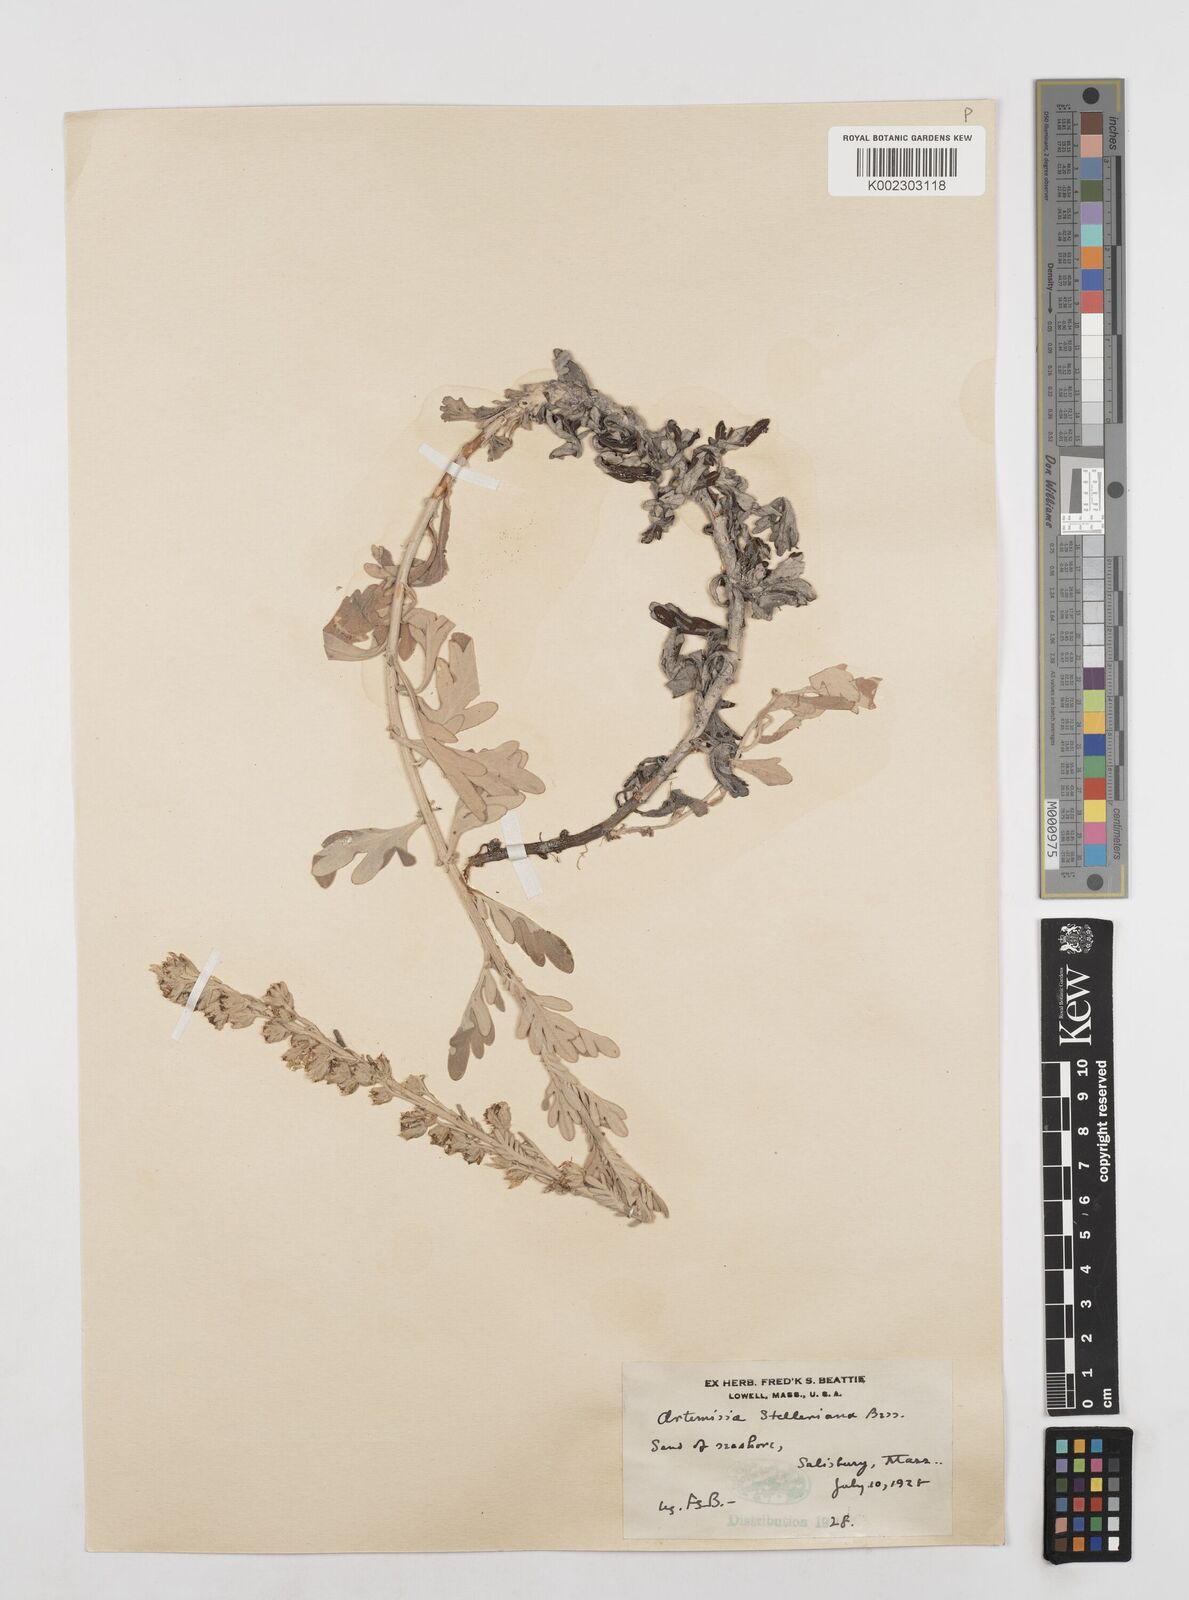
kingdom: Plantae
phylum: Tracheophyta
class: Magnoliopsida
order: Asterales
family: Asteraceae
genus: Artemisia
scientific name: Artemisia stelleriana
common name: Beach wormwood
